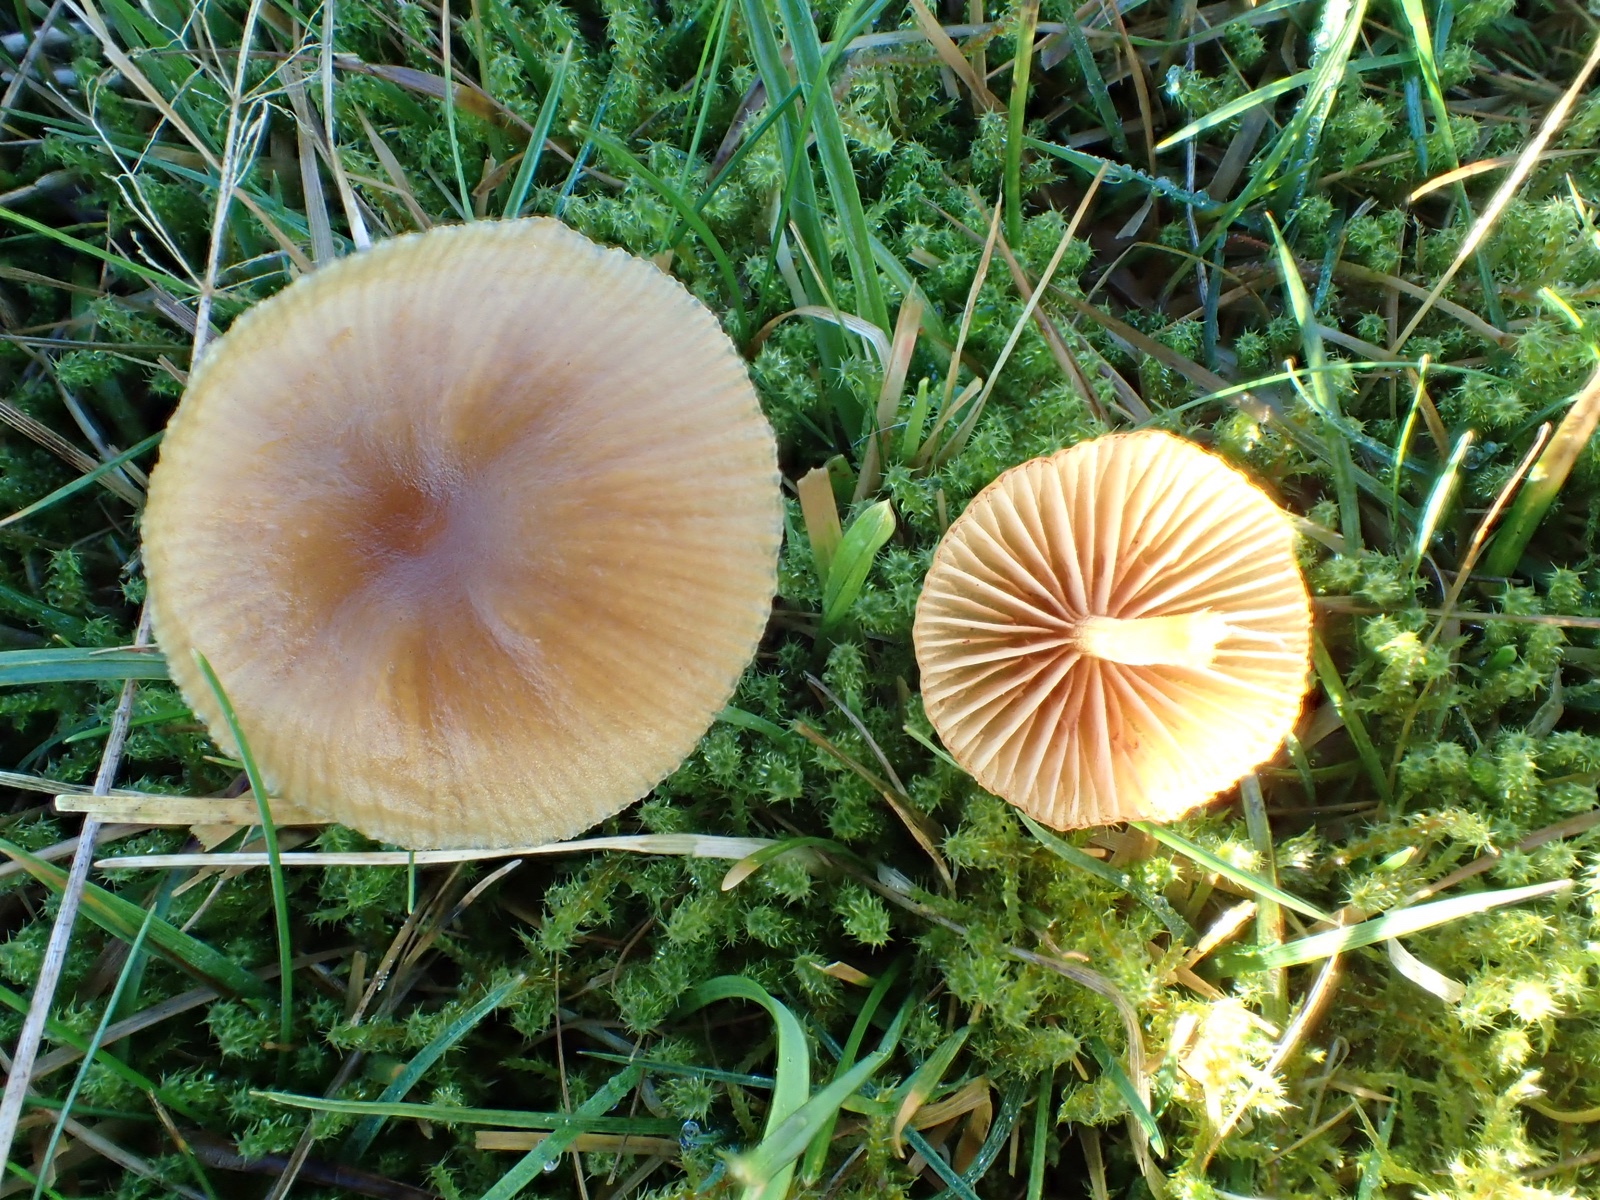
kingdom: Fungi
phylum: Basidiomycota
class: Agaricomycetes
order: Agaricales
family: Hymenogastraceae
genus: Galerina
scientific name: Galerina
